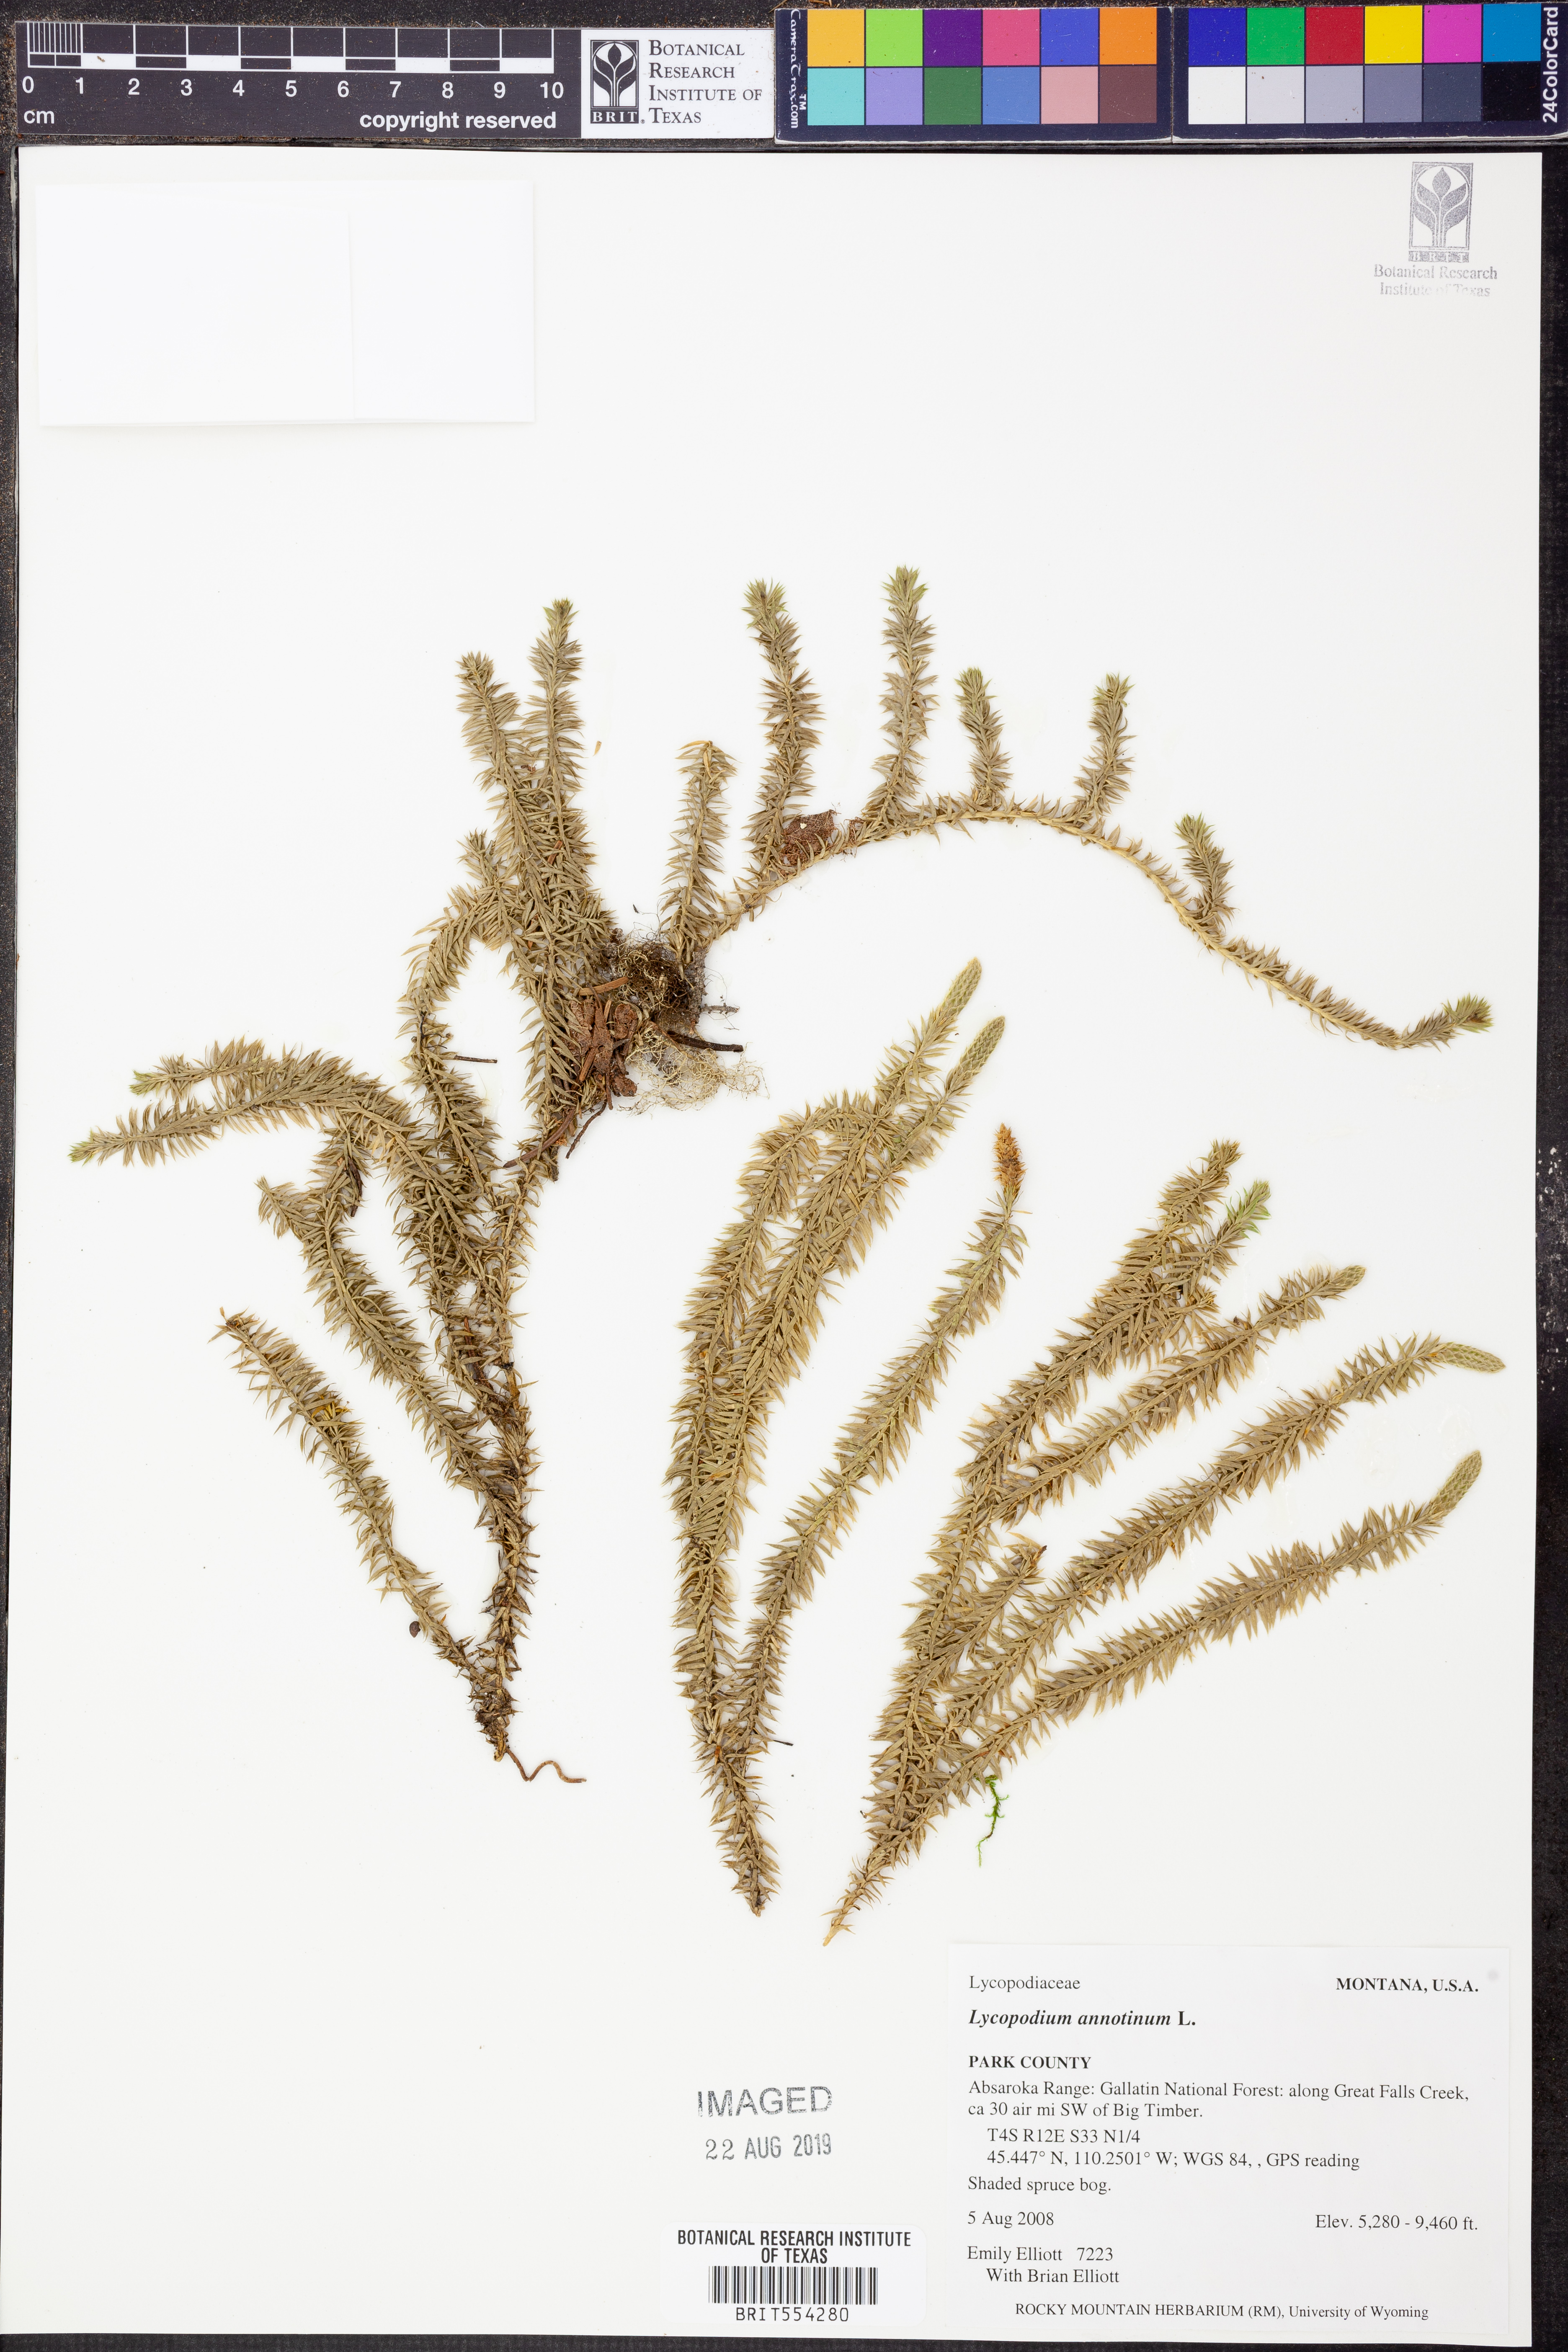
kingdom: Plantae
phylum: Tracheophyta
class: Lycopodiopsida
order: Lycopodiales
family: Lycopodiaceae
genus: Spinulum
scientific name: Spinulum annotinum
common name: Interrupted club-moss
